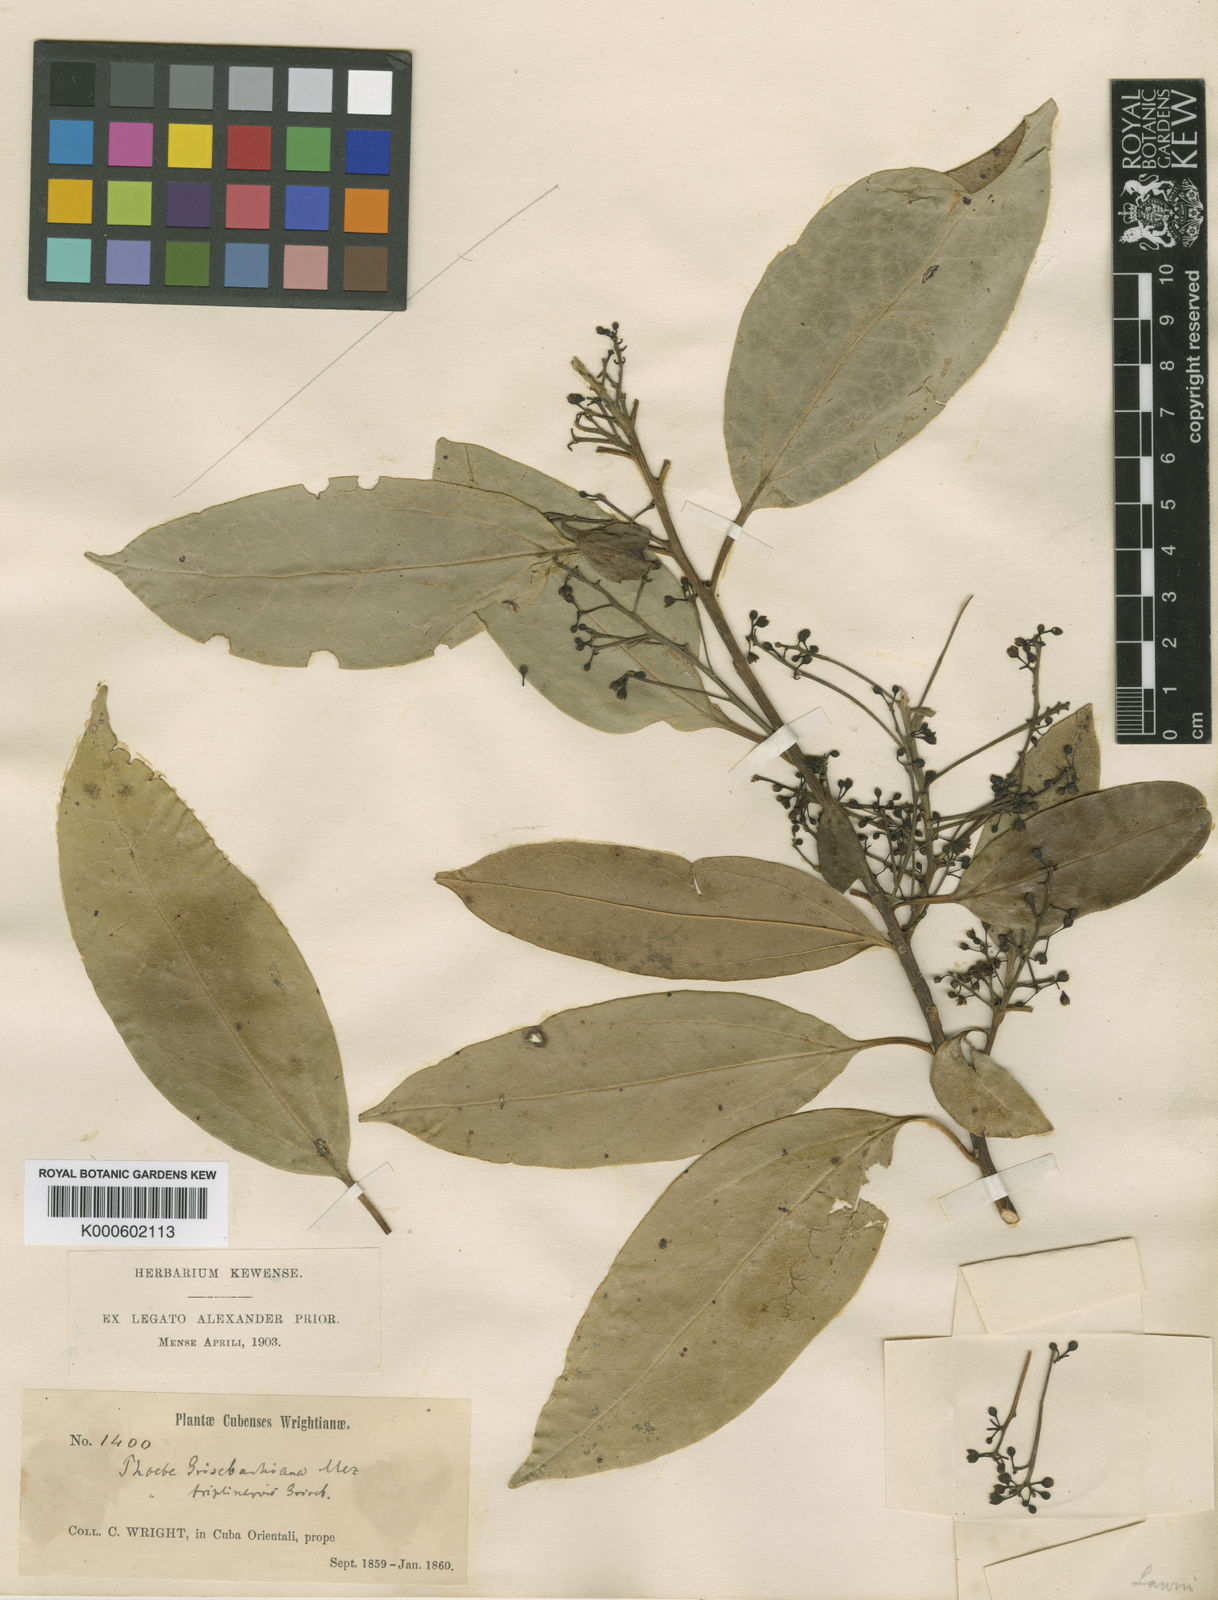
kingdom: Plantae
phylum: Tracheophyta
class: Magnoliopsida
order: Laurales
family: Lauraceae
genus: Aiouea
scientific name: Aiouea grisebachii
